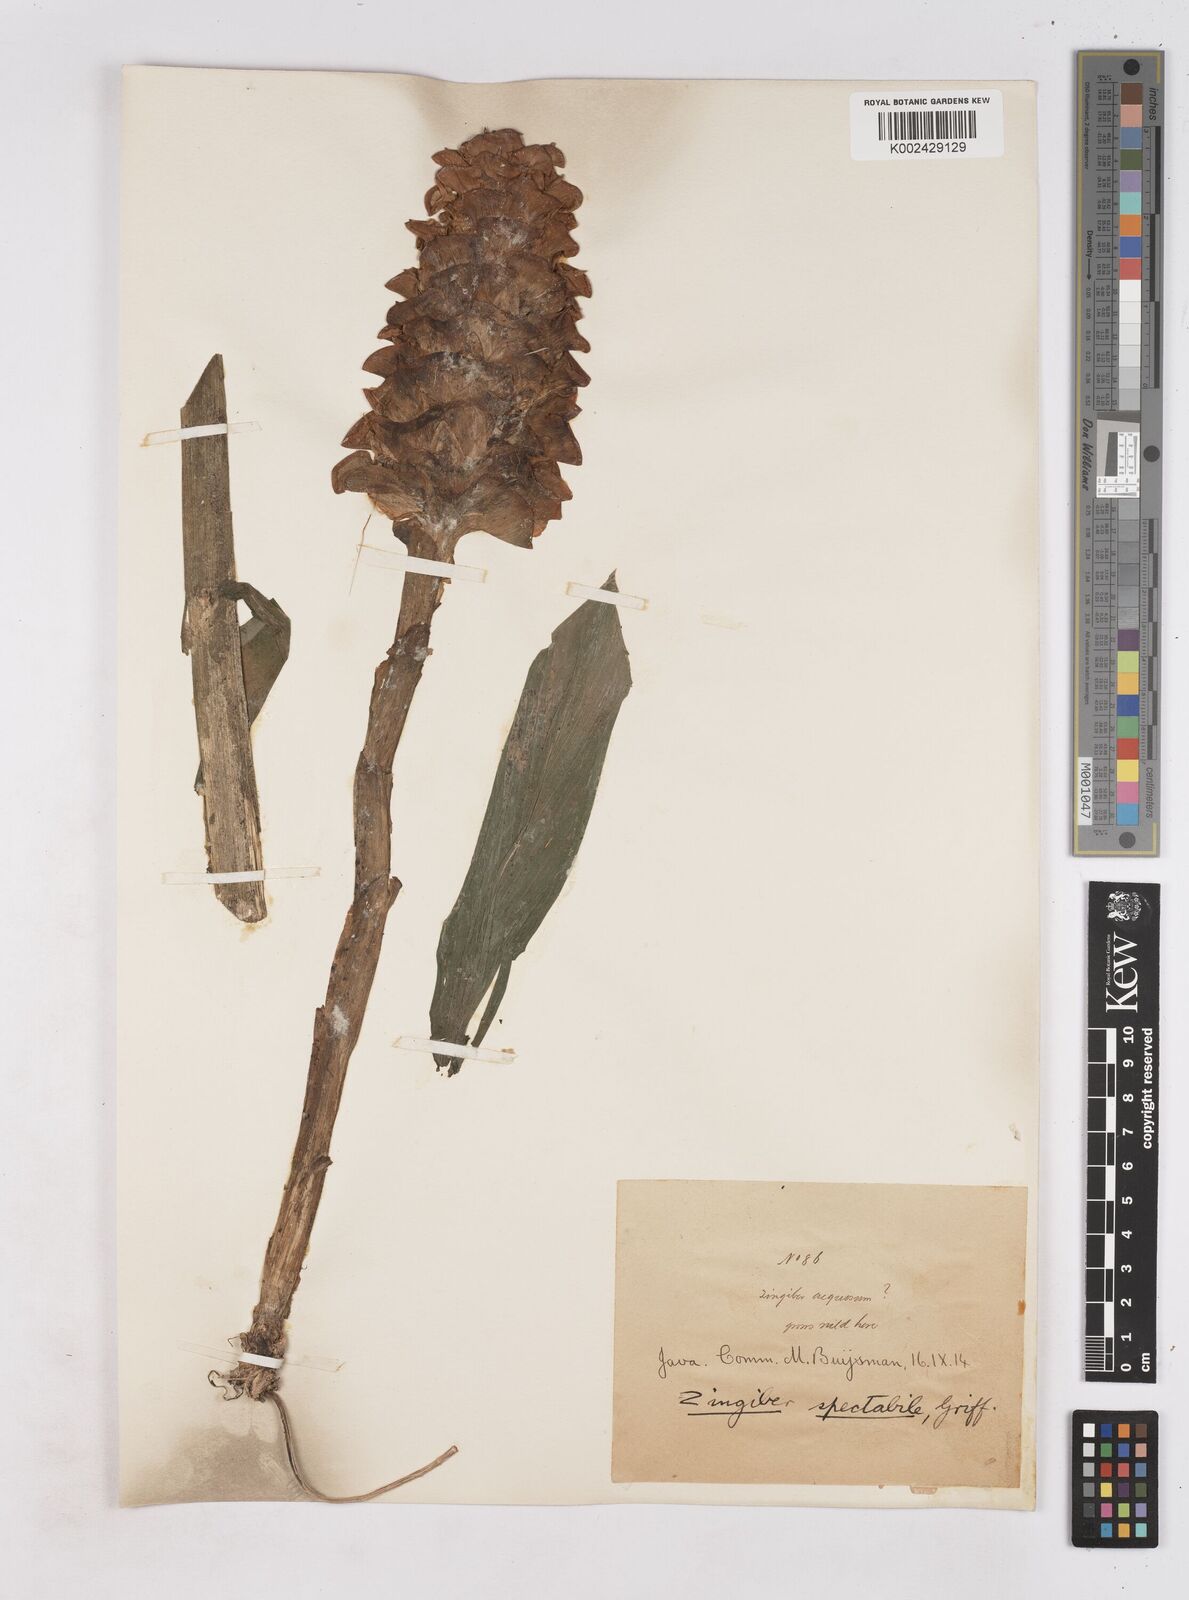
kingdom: Plantae
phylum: Tracheophyta
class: Liliopsida
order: Zingiberales
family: Zingiberaceae
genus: Zingiber
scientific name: Zingiber spectabile
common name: Beehive ginger
